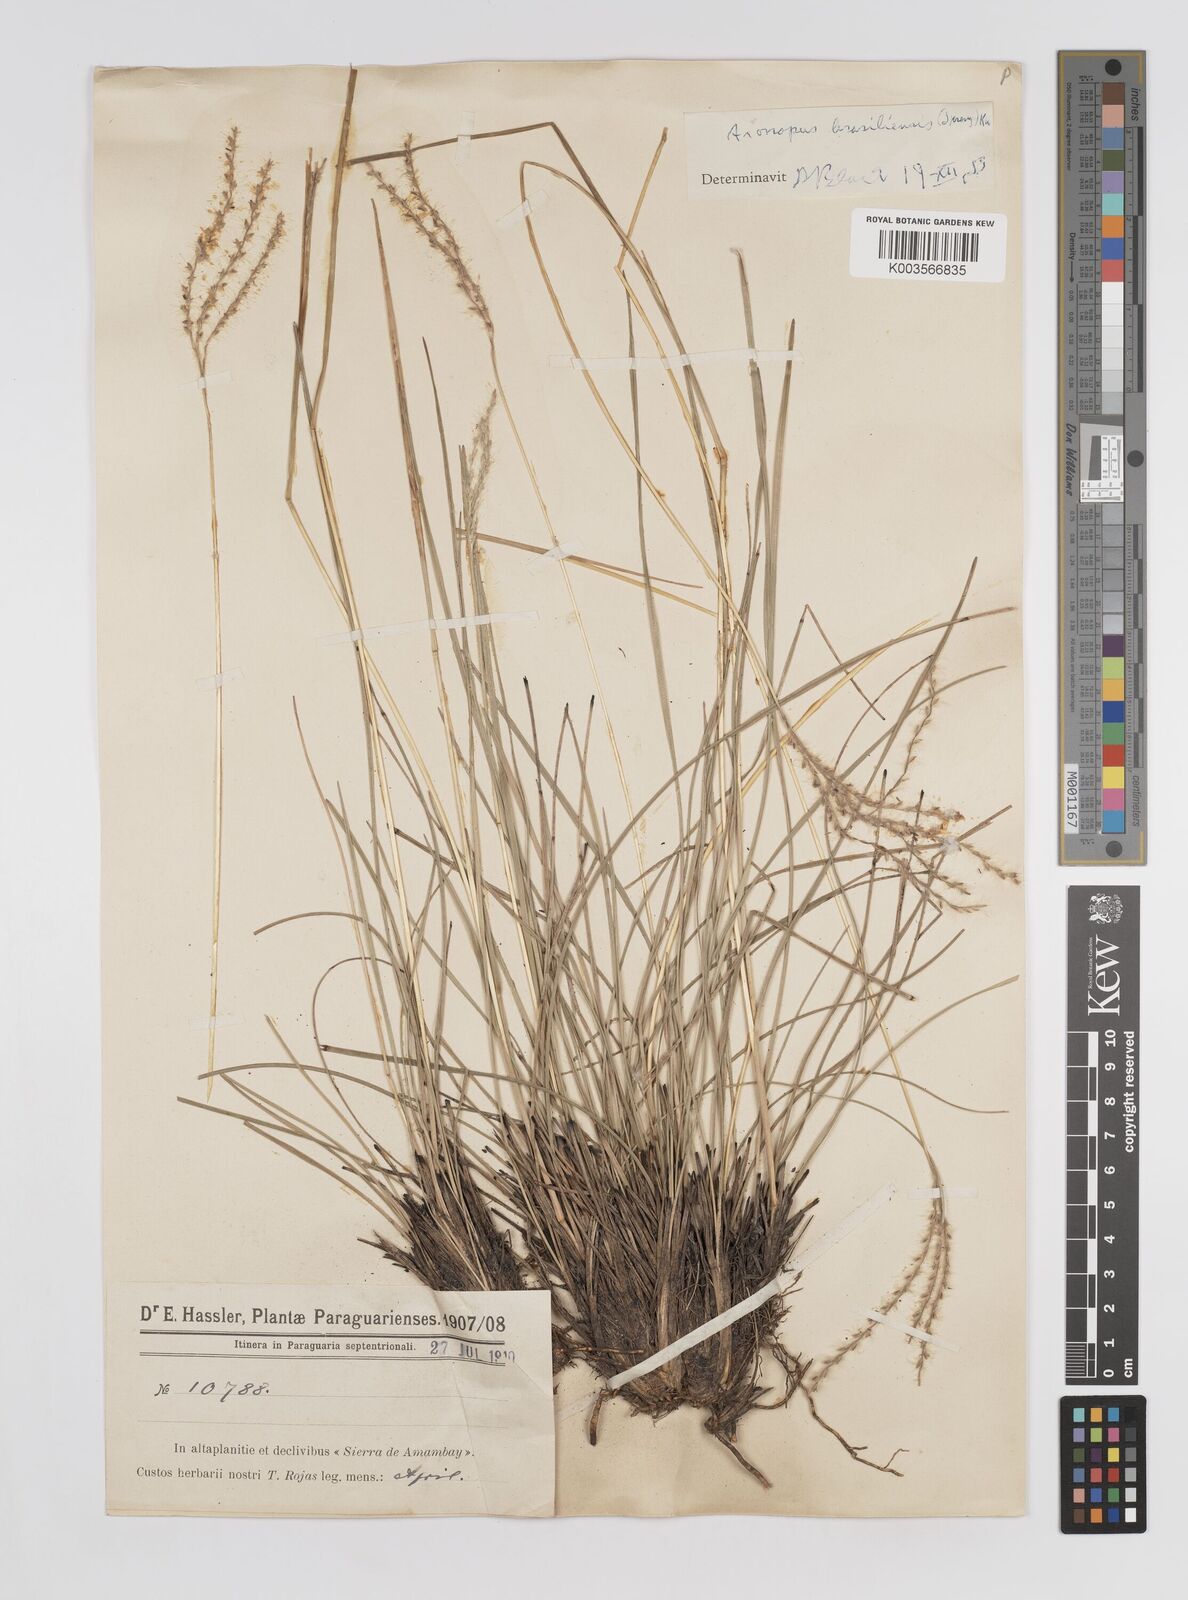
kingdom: Plantae
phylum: Tracheophyta
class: Liliopsida
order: Poales
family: Poaceae
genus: Axonopus
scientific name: Axonopus brasiliensis
